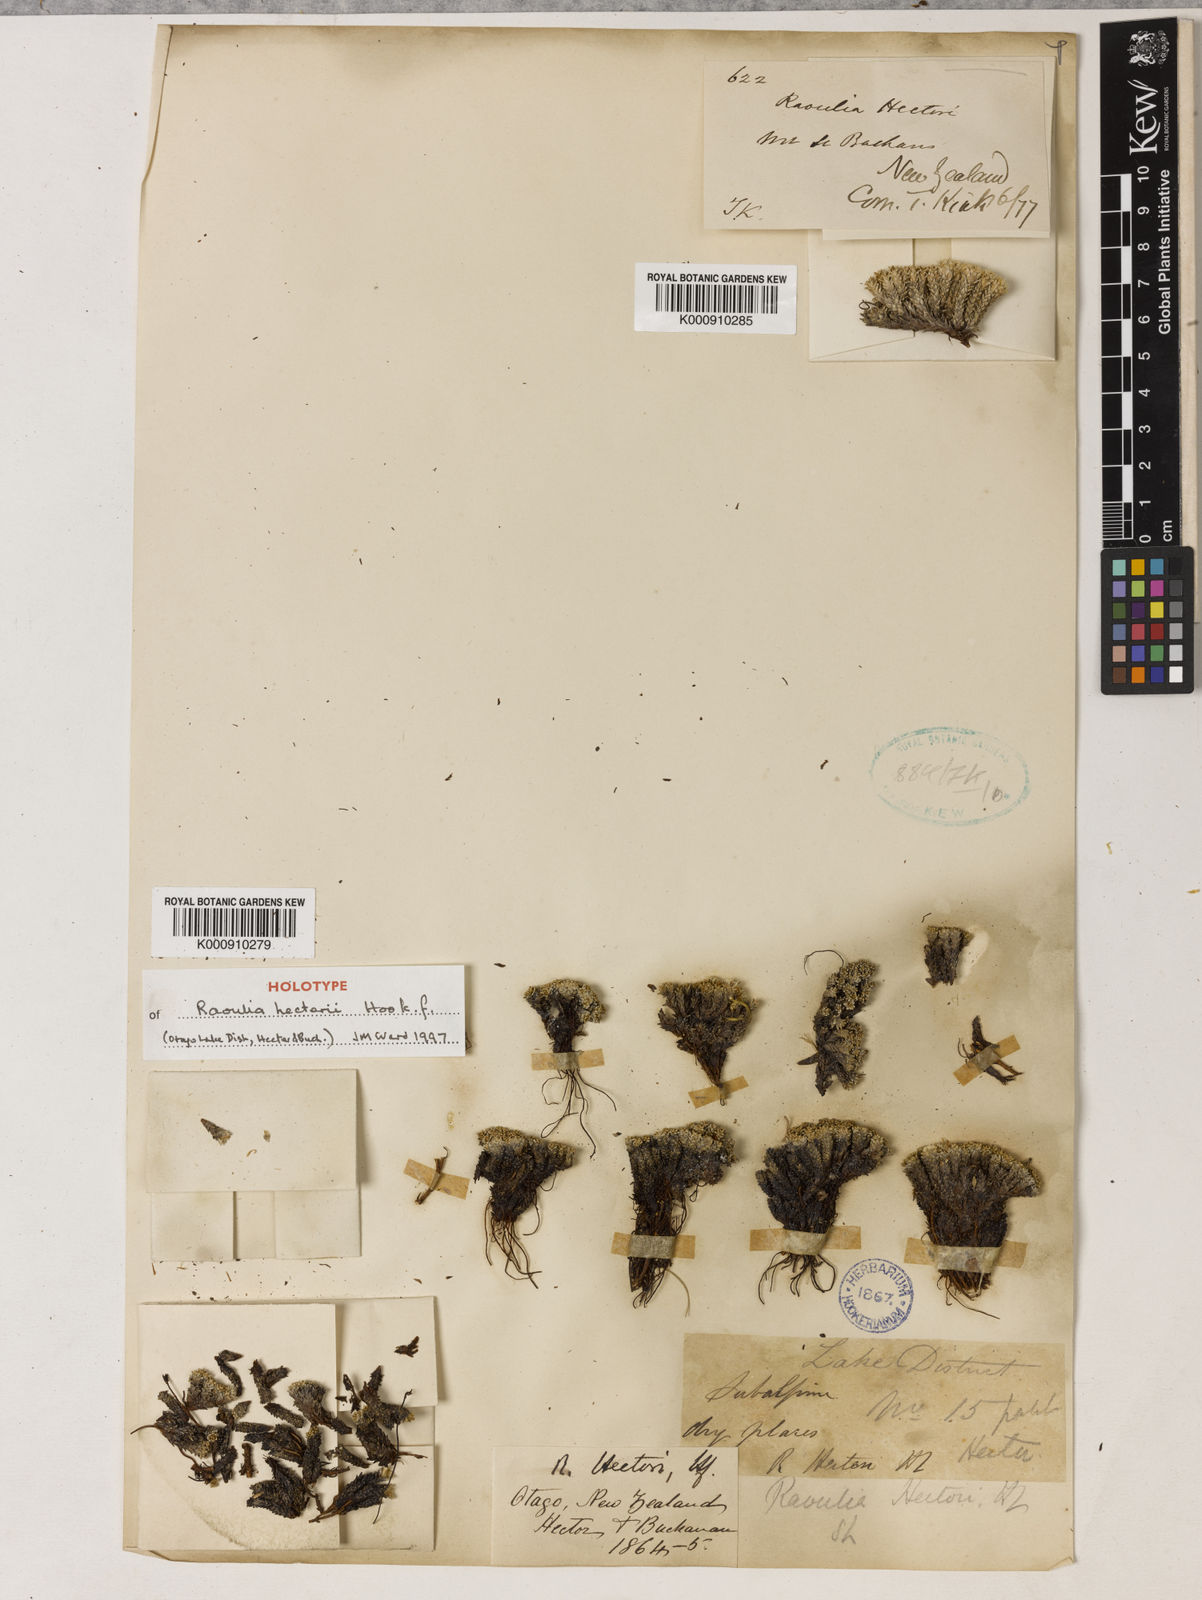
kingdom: Plantae
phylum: Tracheophyta
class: Magnoliopsida
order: Asterales
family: Asteraceae
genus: Raoulia
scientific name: Raoulia
